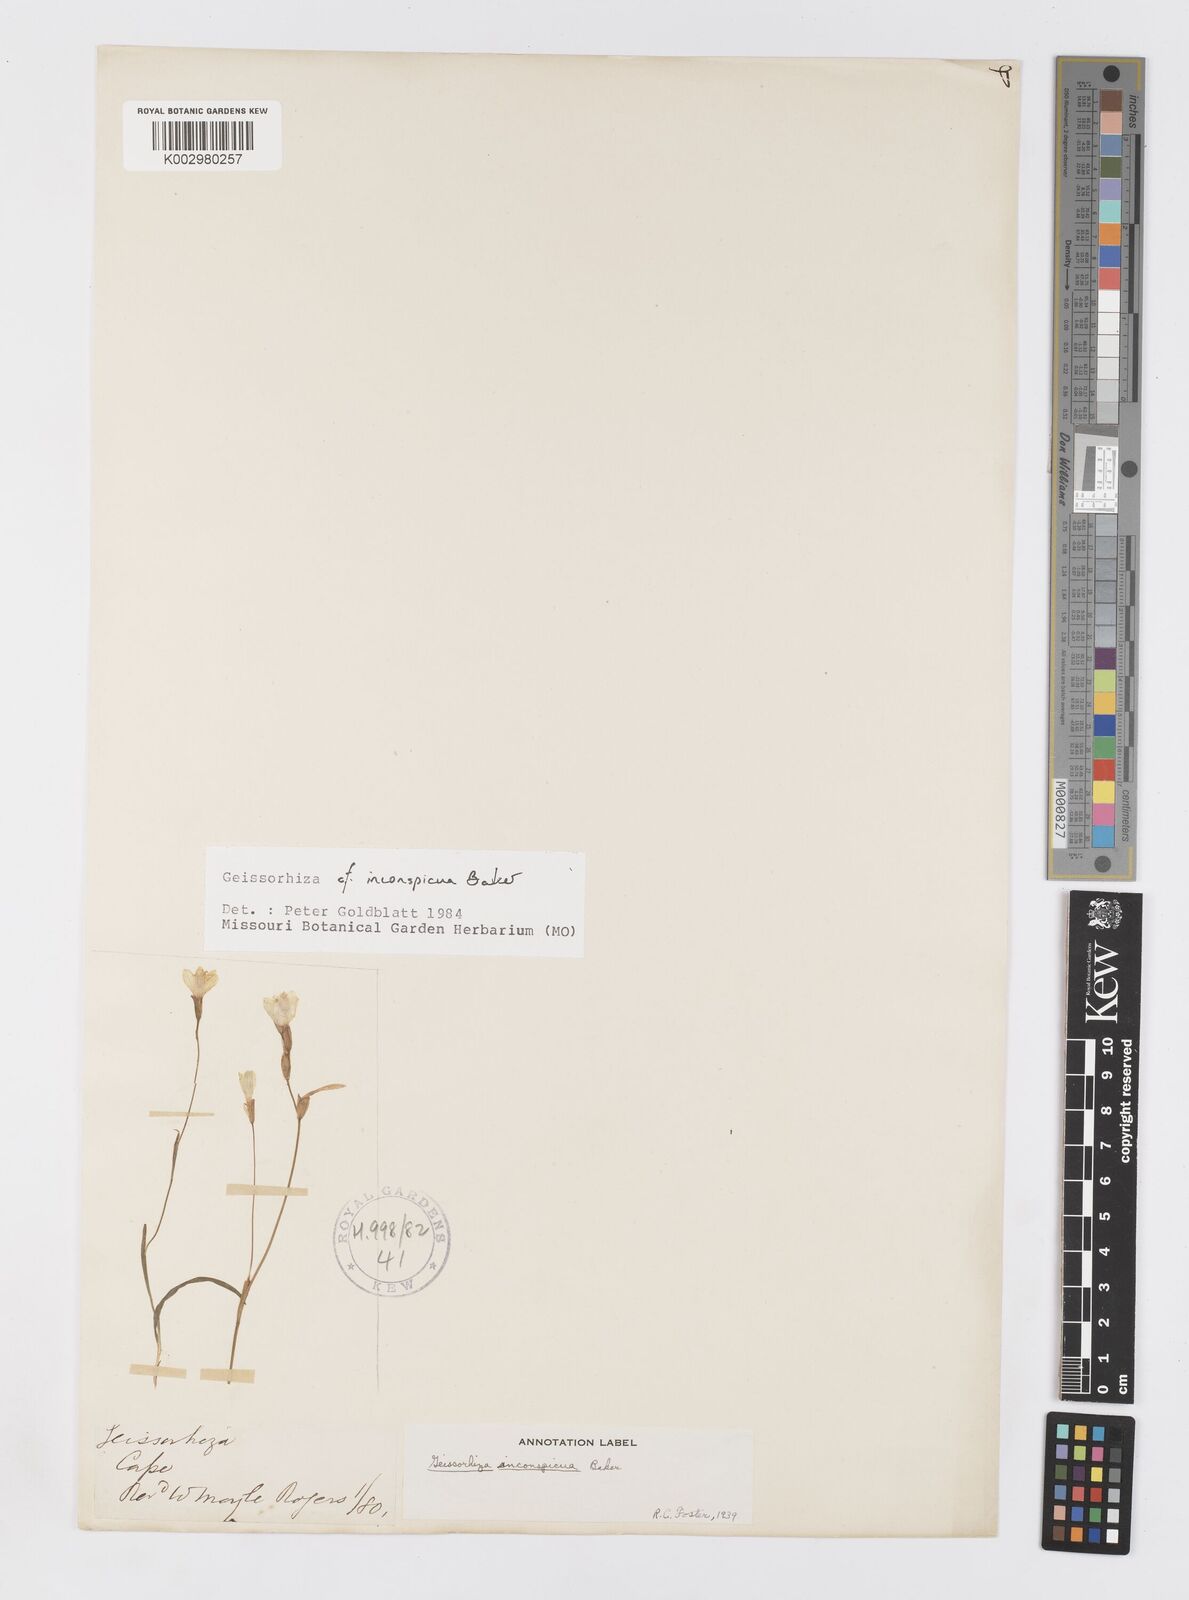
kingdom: Plantae
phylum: Tracheophyta
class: Liliopsida
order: Asparagales
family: Iridaceae
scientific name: Iridaceae
